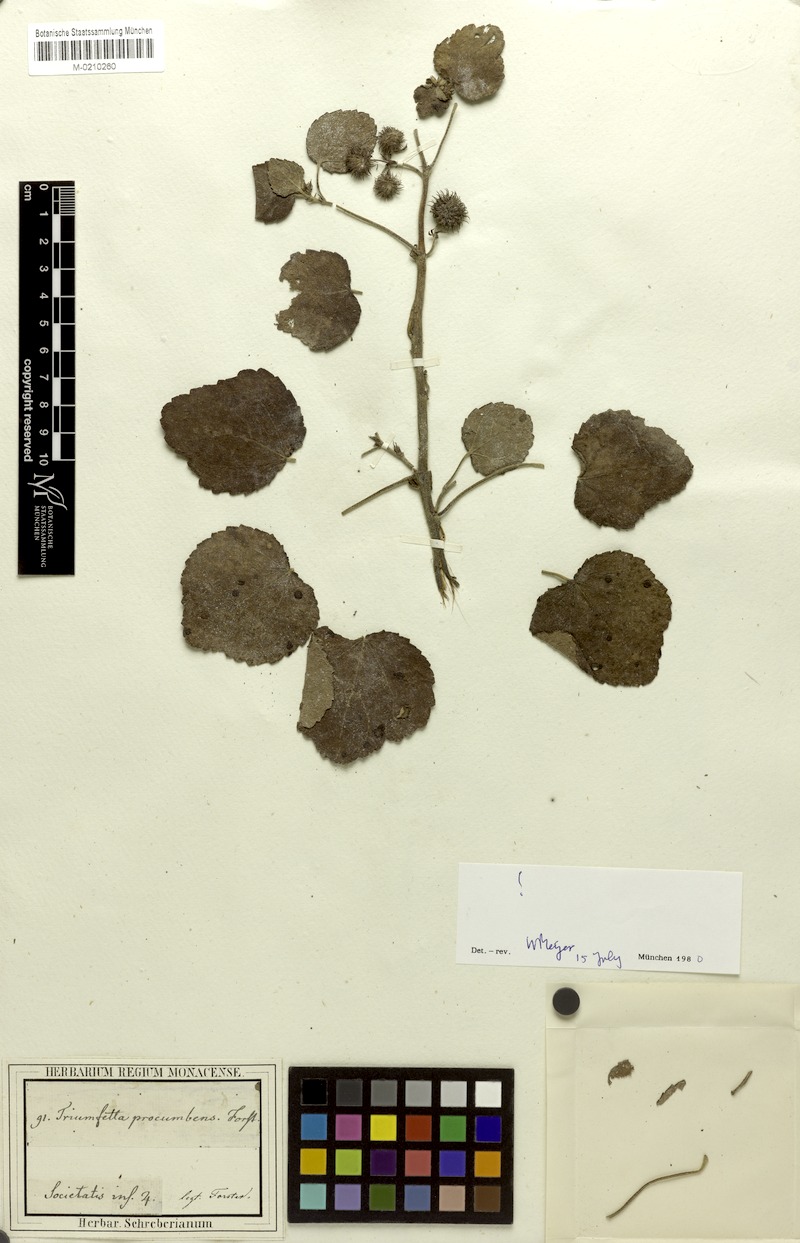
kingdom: Plantae
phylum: Tracheophyta
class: Magnoliopsida
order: Malvales
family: Malvaceae
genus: Triumfetta
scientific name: Triumfetta repens
